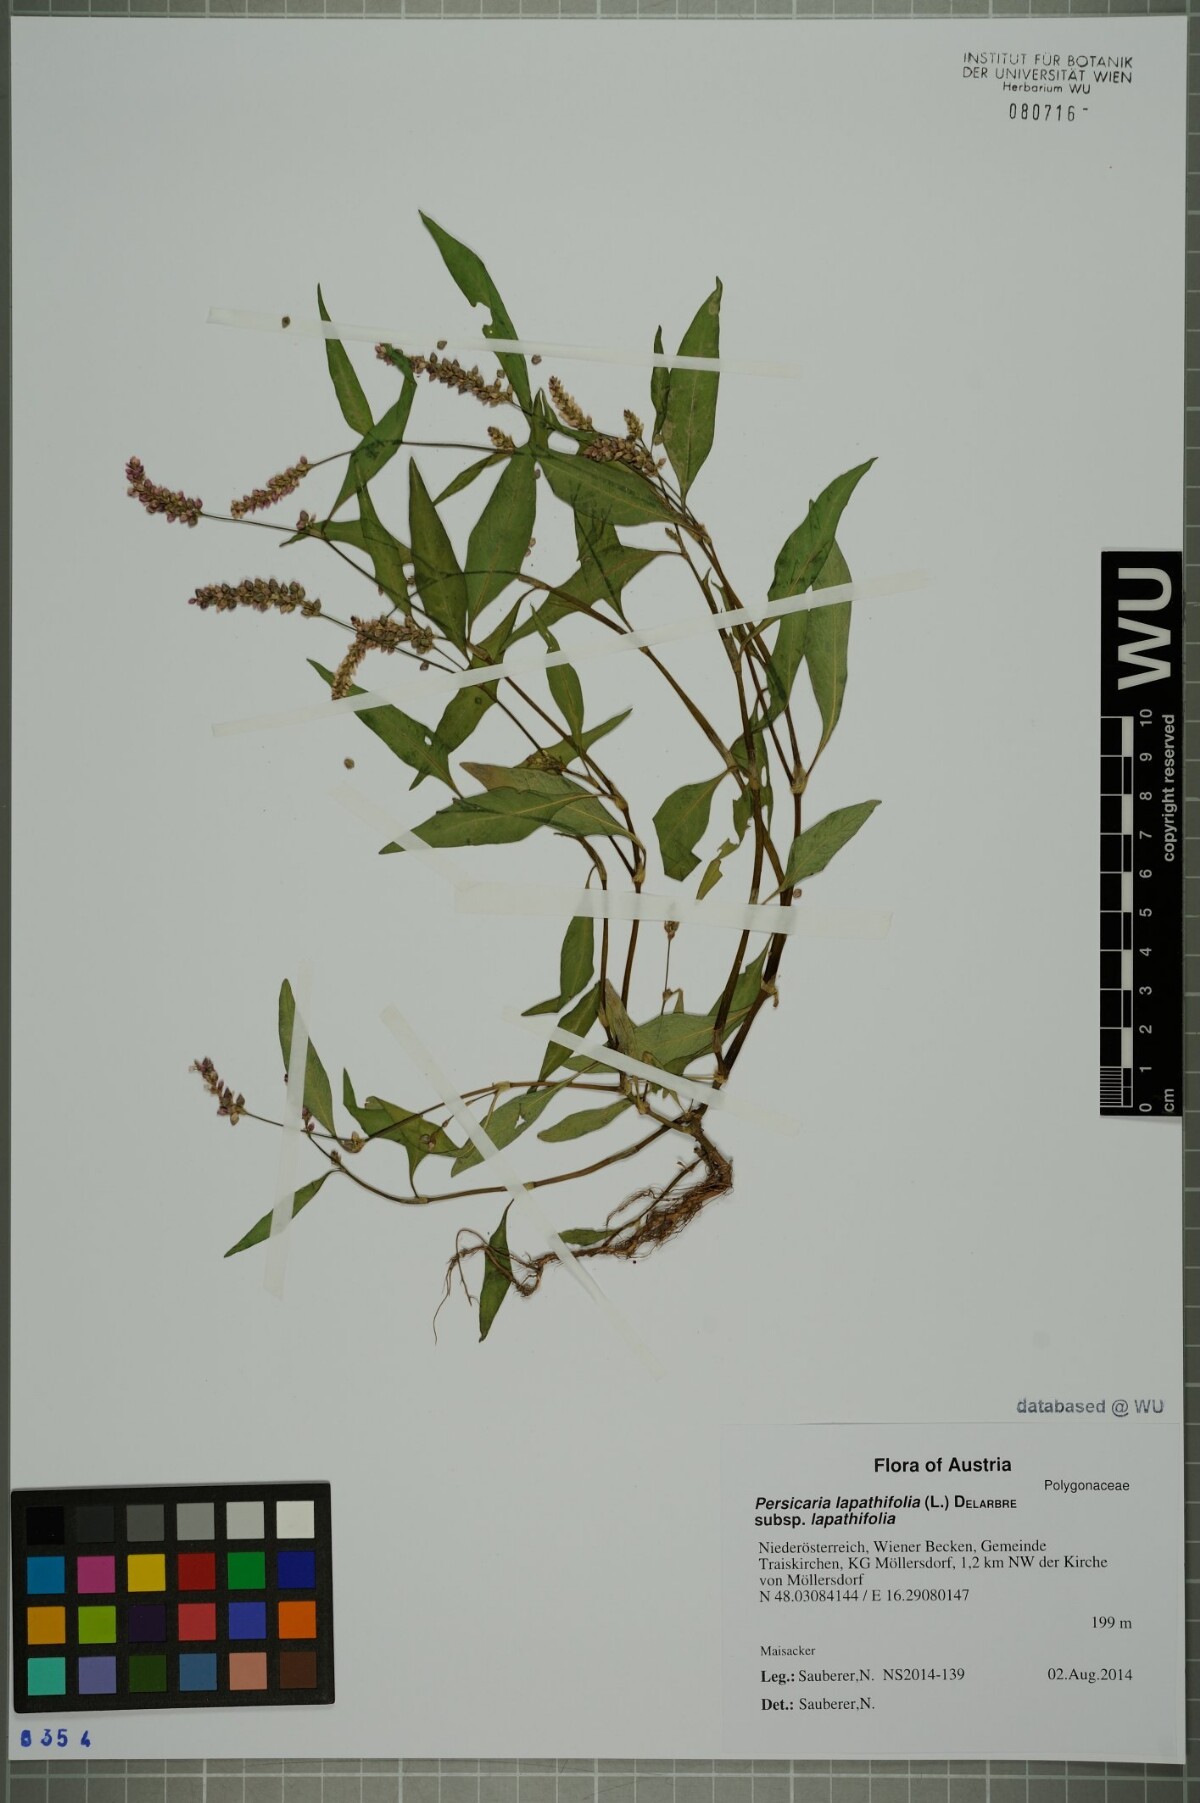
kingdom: Plantae
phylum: Tracheophyta
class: Magnoliopsida
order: Caryophyllales
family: Polygonaceae
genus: Persicaria
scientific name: Persicaria lapathifolia
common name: Curlytop knotweed
